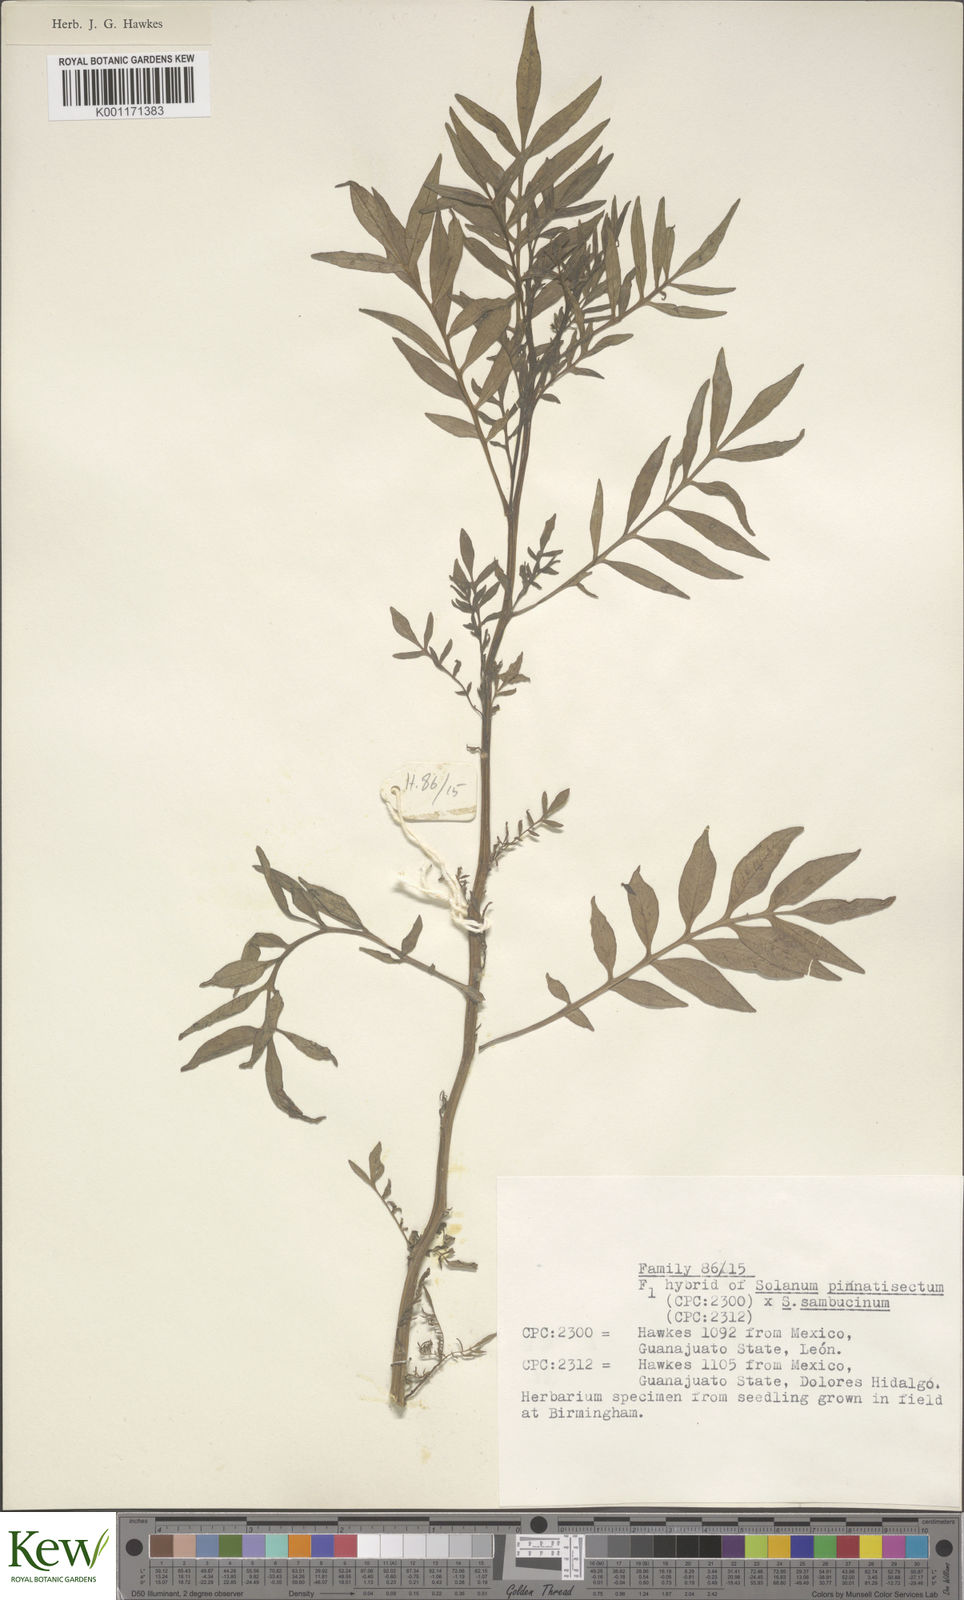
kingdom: Plantae
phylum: Tracheophyta
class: Magnoliopsida
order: Solanales
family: Solanaceae
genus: Solanum
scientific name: Solanum pinnatisectum
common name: Tansyleaf nightshade
